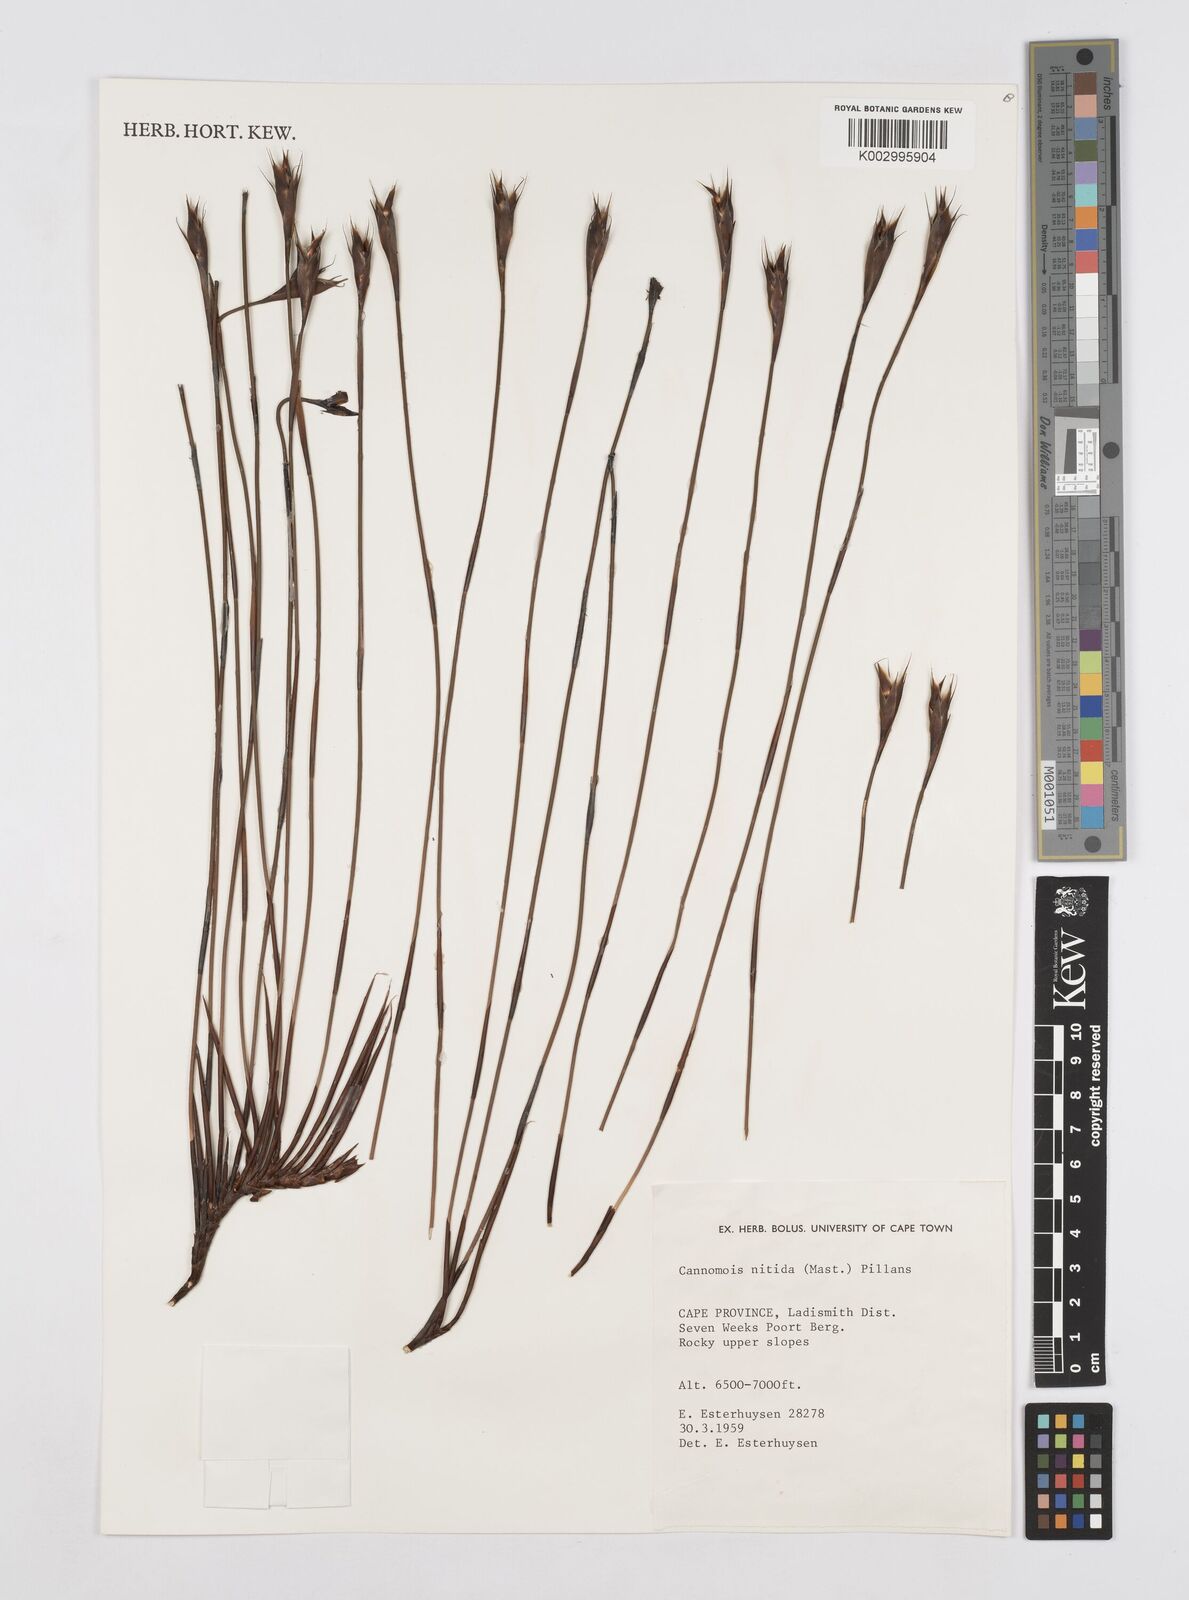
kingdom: Plantae
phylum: Tracheophyta
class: Liliopsida
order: Poales
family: Restionaceae
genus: Cannomois
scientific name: Cannomois nitida
